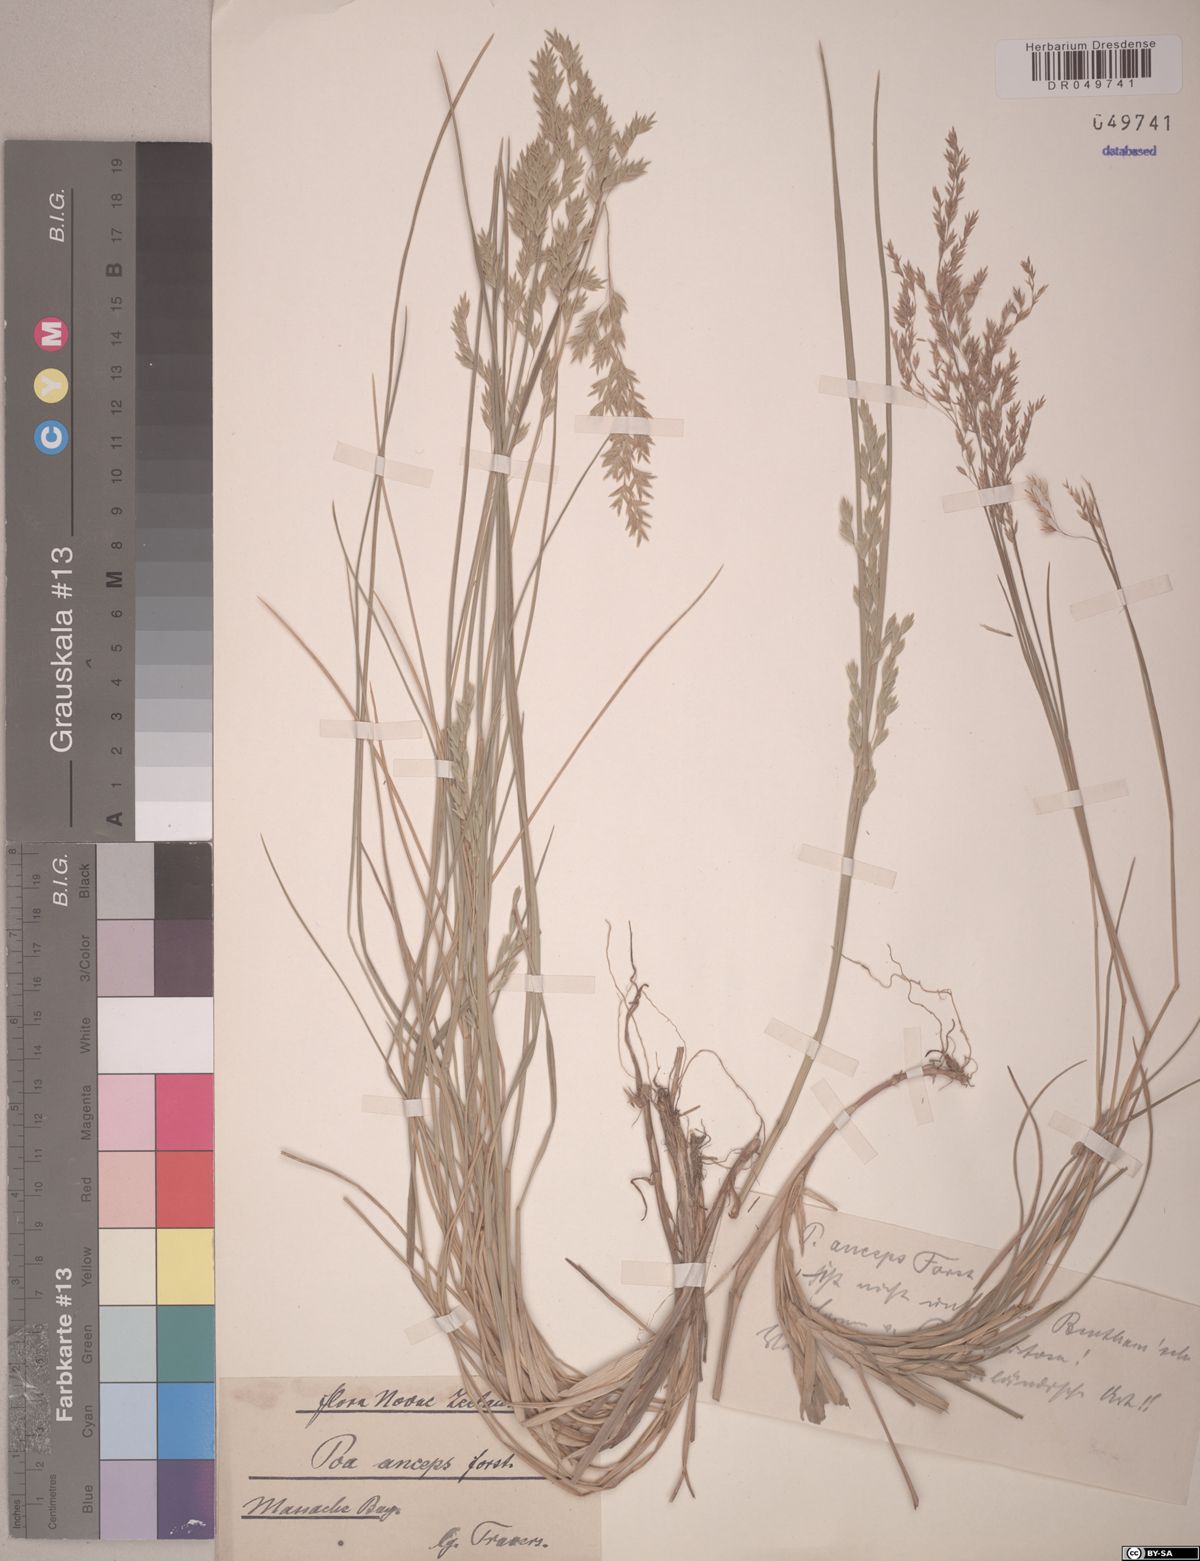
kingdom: Plantae
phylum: Tracheophyta
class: Liliopsida
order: Poales
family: Poaceae
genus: Poa
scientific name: Poa anceps
